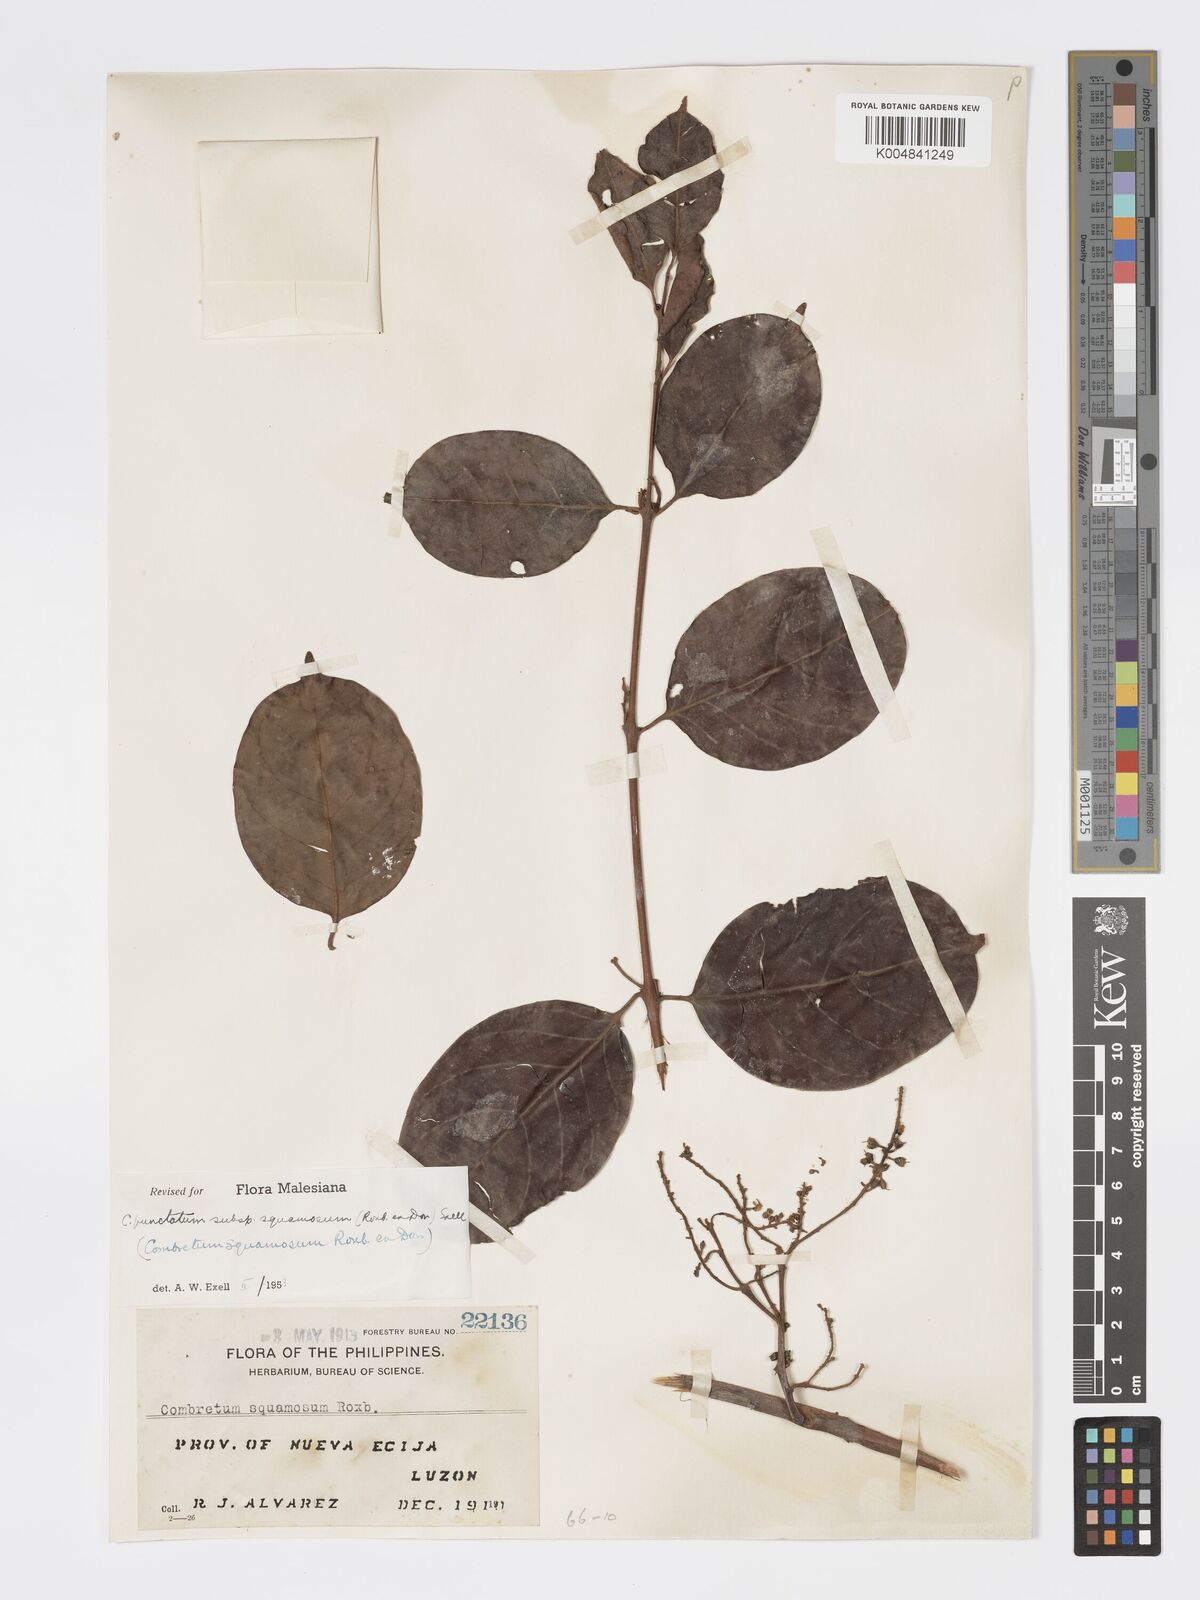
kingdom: Plantae
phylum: Tracheophyta
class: Magnoliopsida
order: Myrtales
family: Combretaceae
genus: Combretum
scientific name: Combretum
